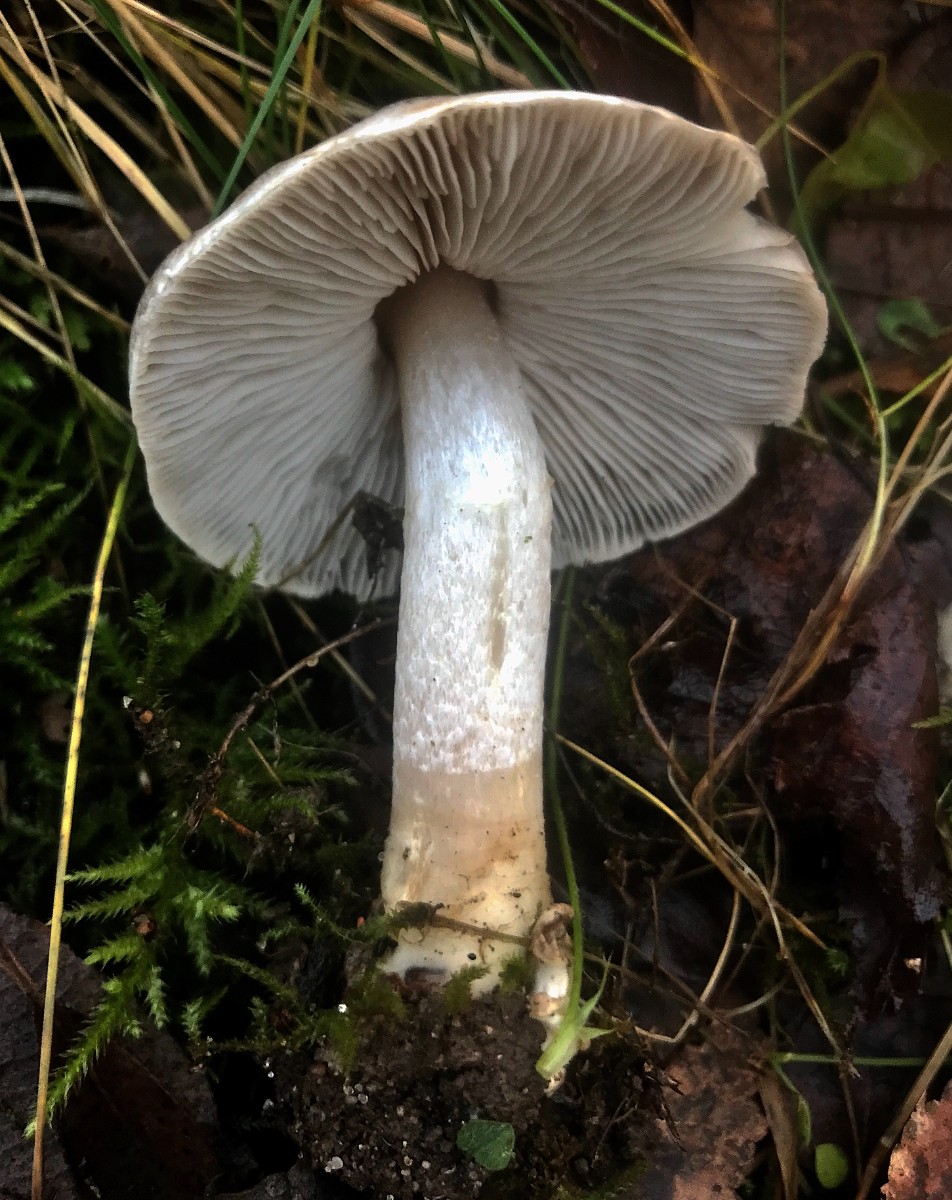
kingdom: Fungi
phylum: Basidiomycota
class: Agaricomycetes
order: Agaricales
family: Tricholomataceae
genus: Tricholoma
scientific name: Tricholoma terreum
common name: jordfarvet ridderhat
